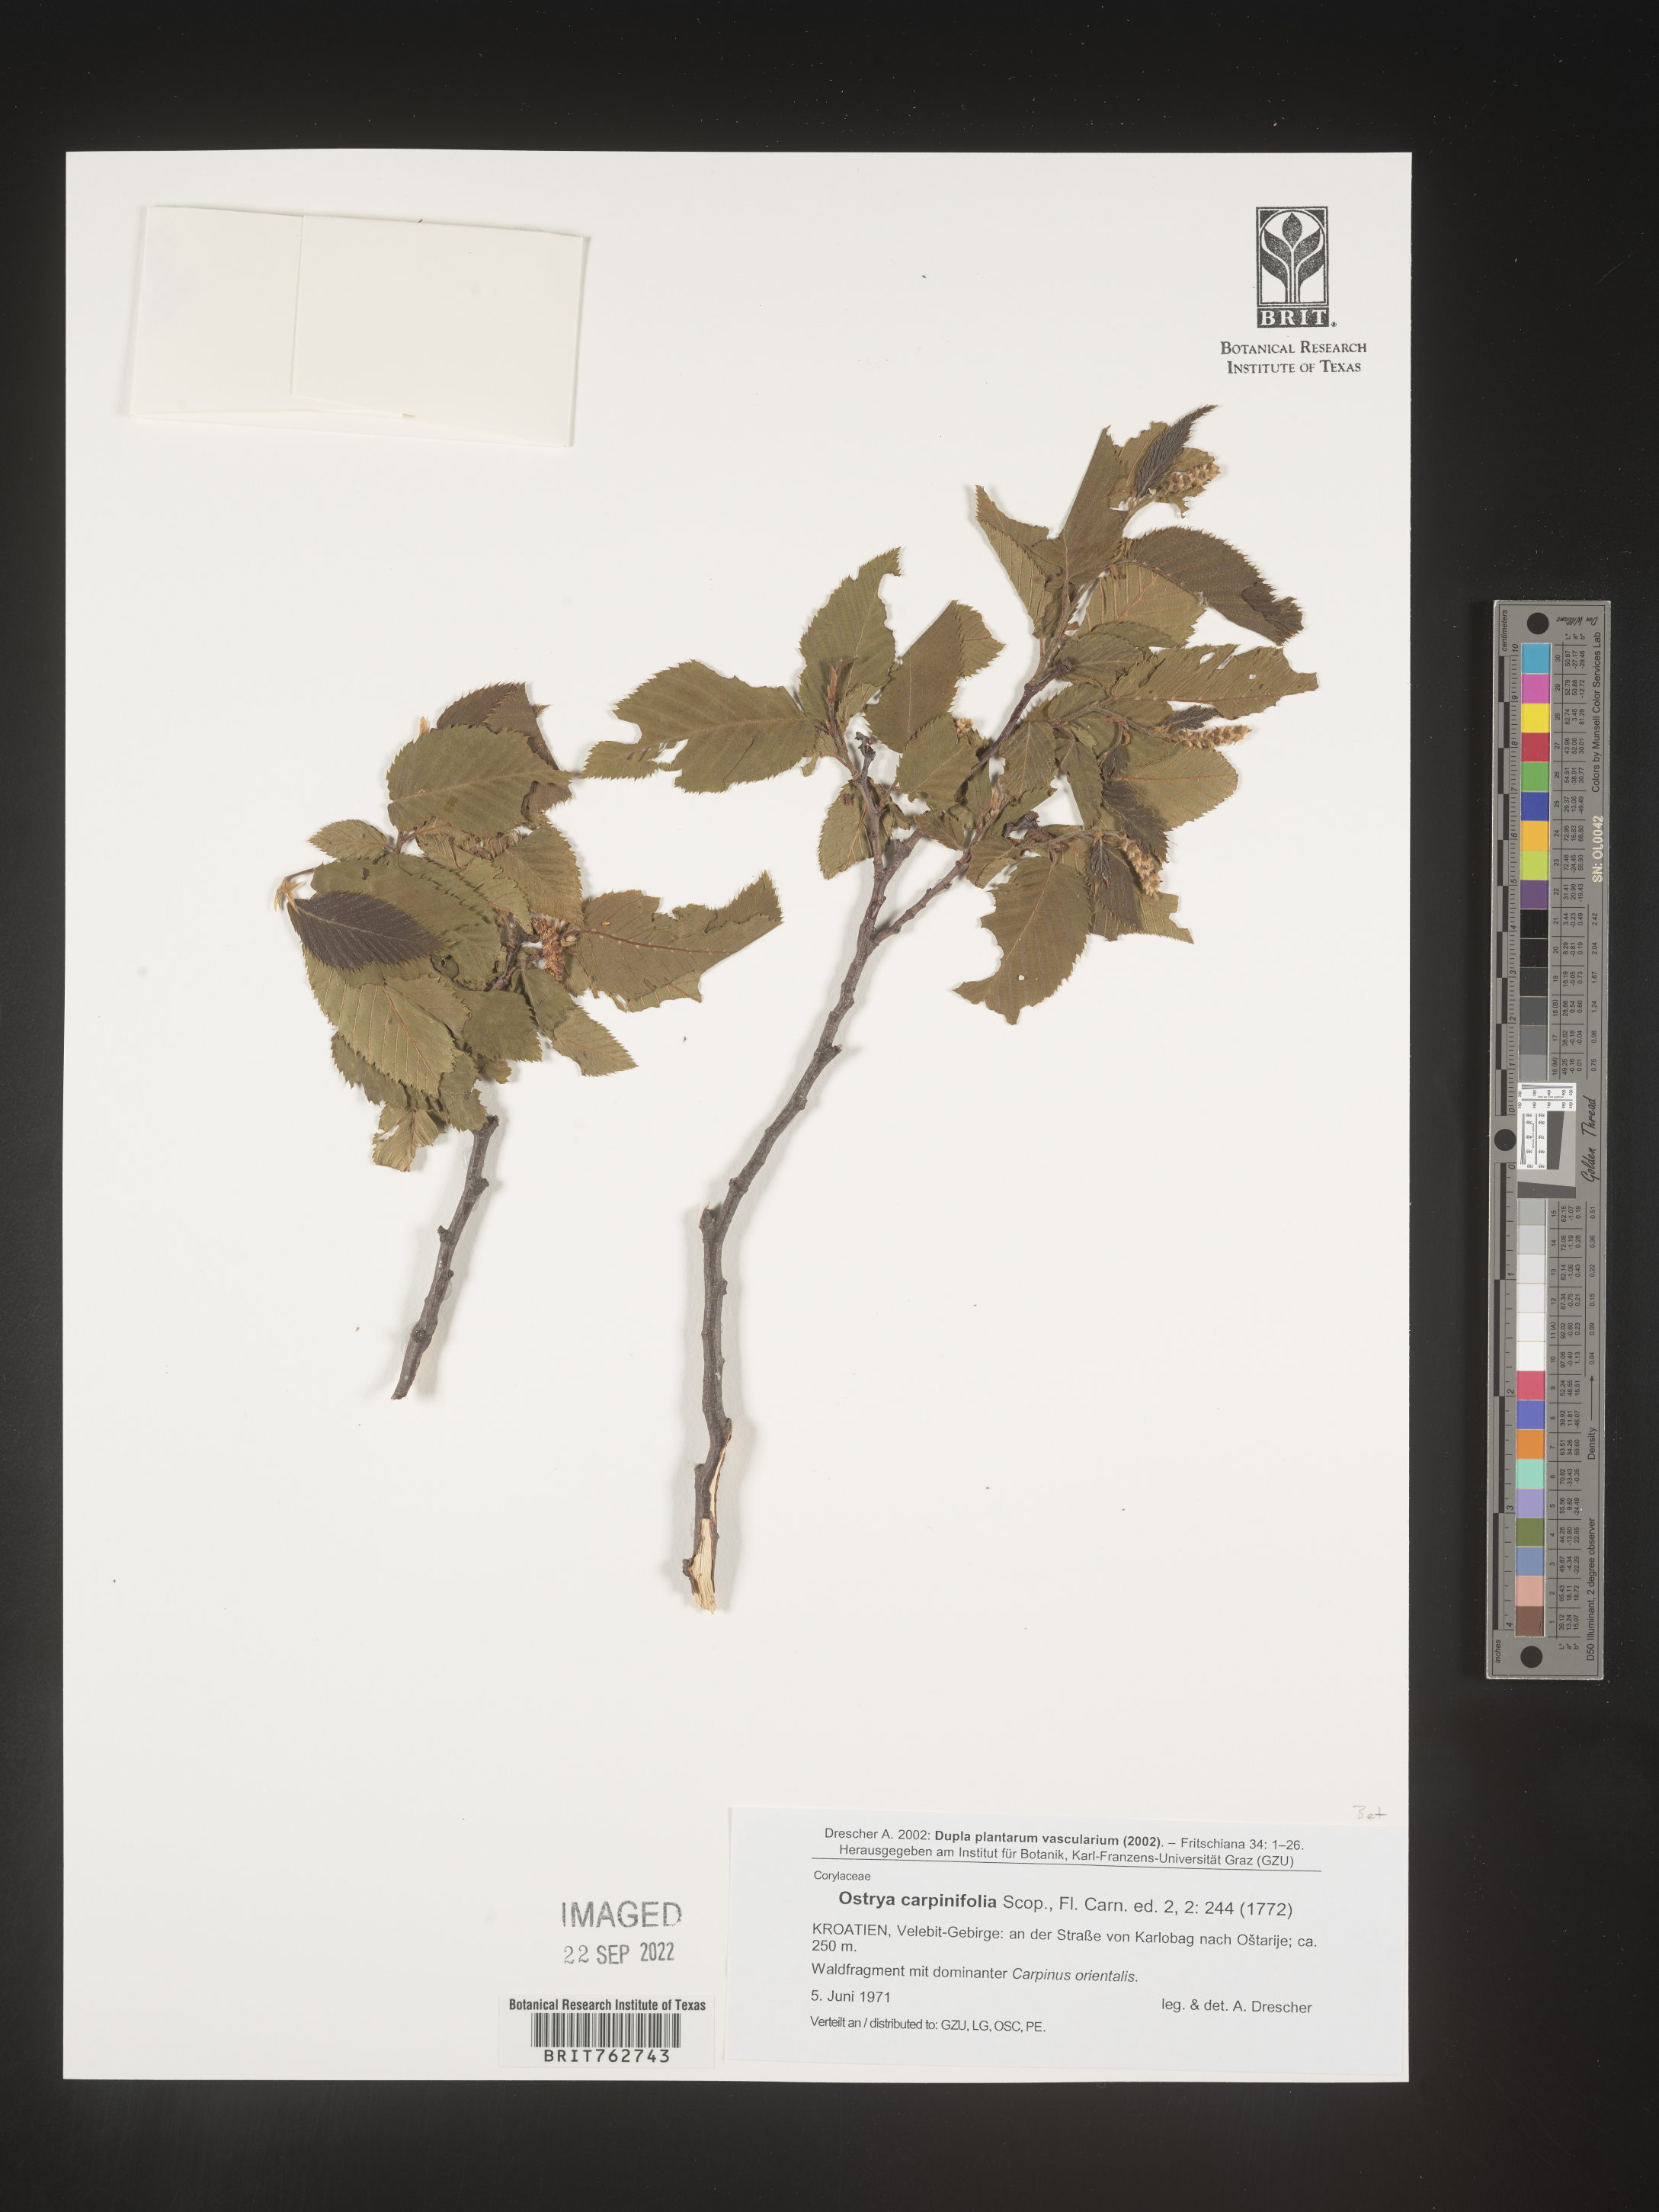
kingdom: Plantae
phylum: Tracheophyta
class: Magnoliopsida
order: Fagales
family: Betulaceae
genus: Ostrya
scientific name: Ostrya
